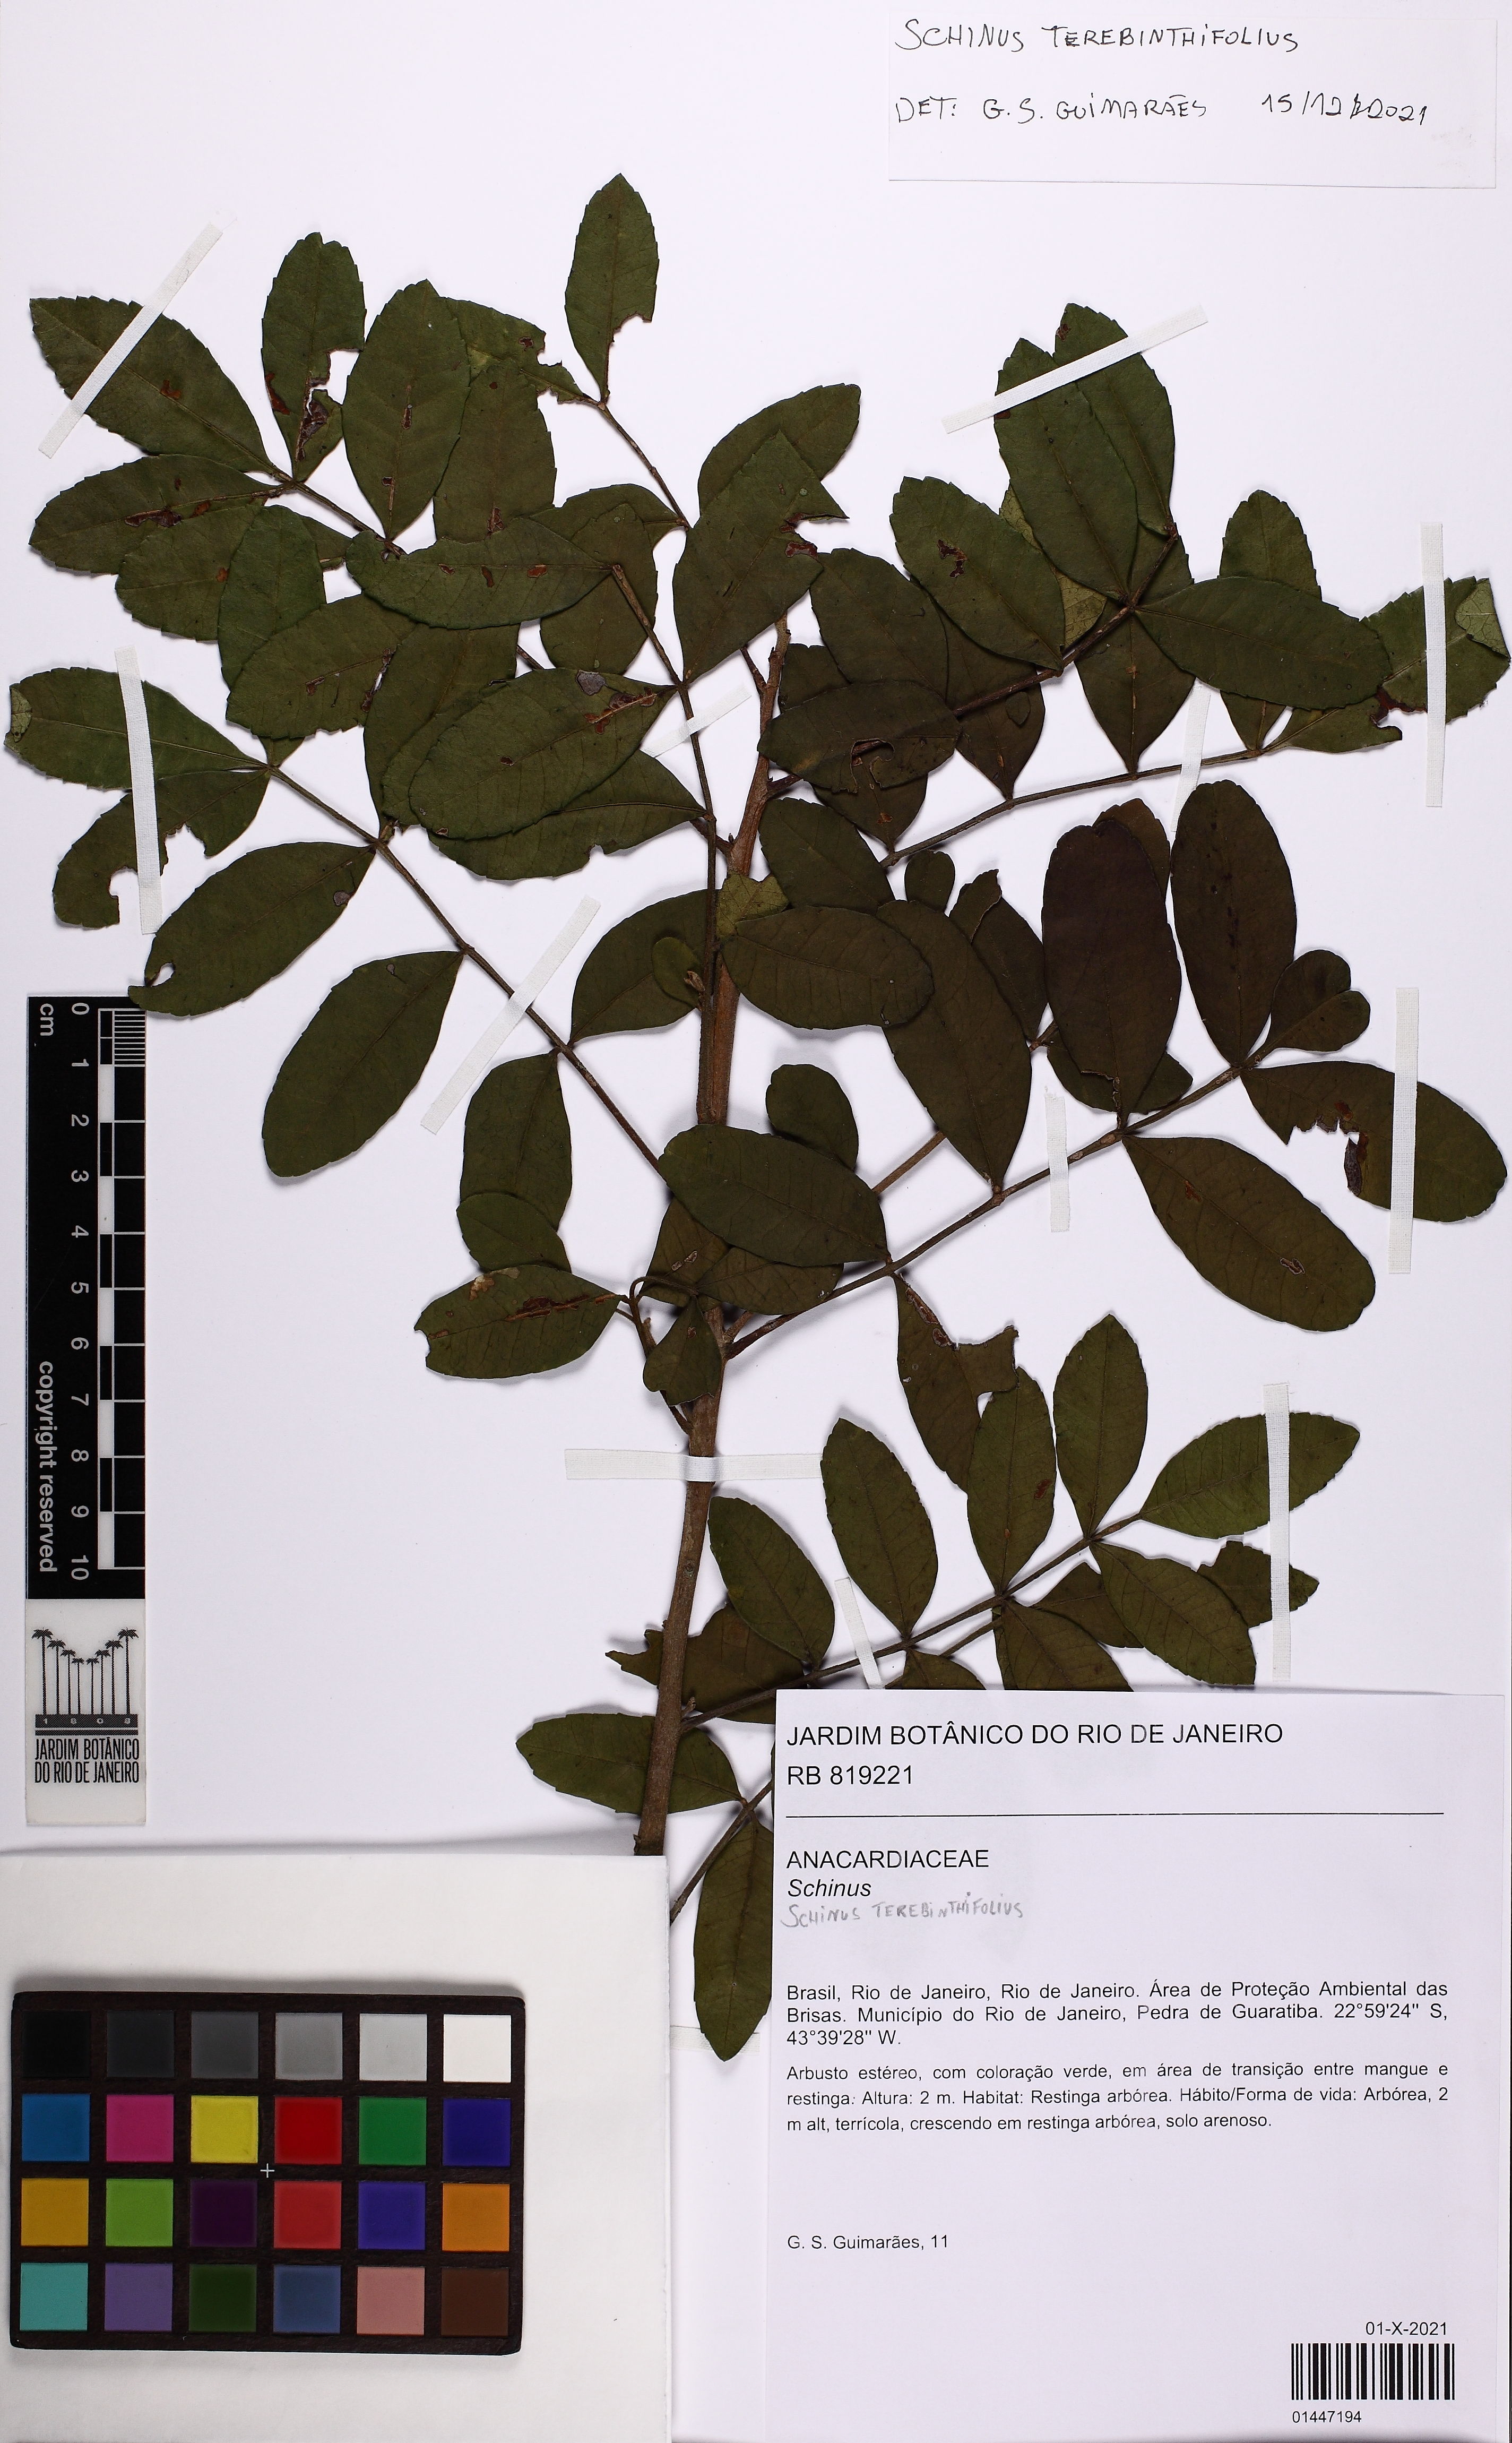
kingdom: Plantae
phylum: Tracheophyta
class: Magnoliopsida
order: Sapindales
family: Anacardiaceae
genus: Schinus
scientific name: Schinus terebinthifolia
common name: Brazilian peppertree
